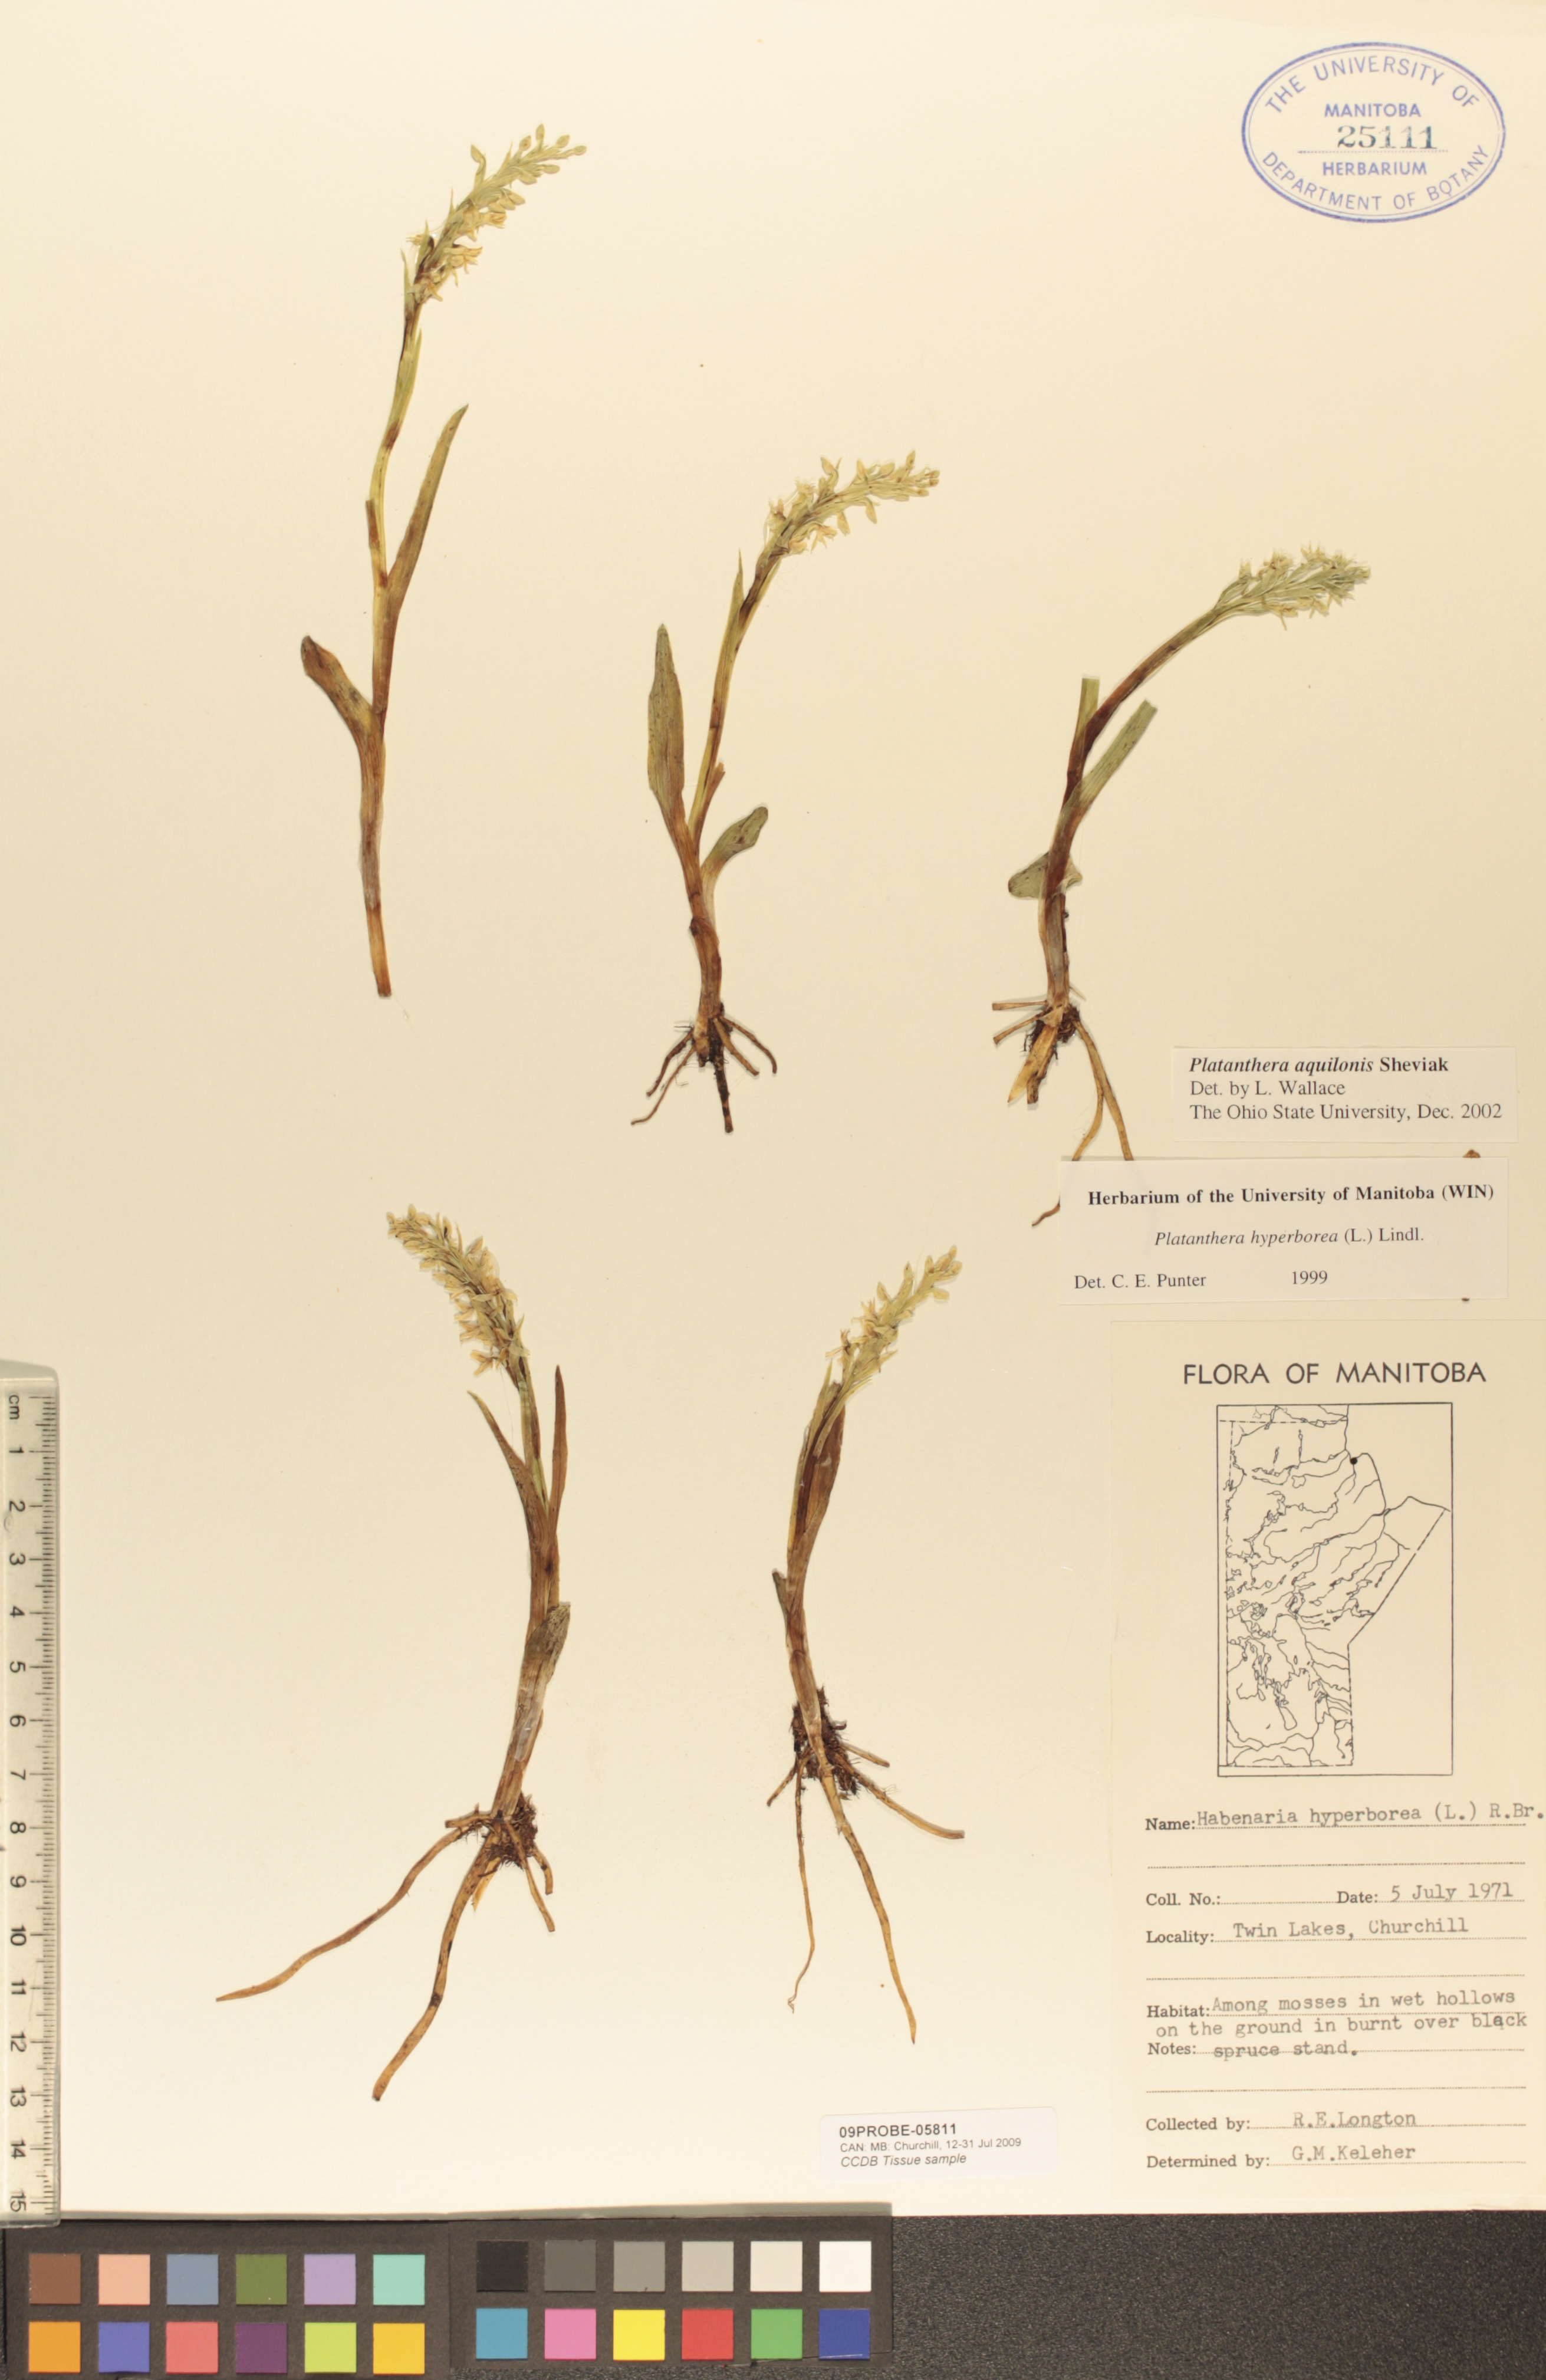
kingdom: Plantae
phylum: Tracheophyta
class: Liliopsida
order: Asparagales
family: Orchidaceae
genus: Platanthera
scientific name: Platanthera aquilonis
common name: Northern green orchid
